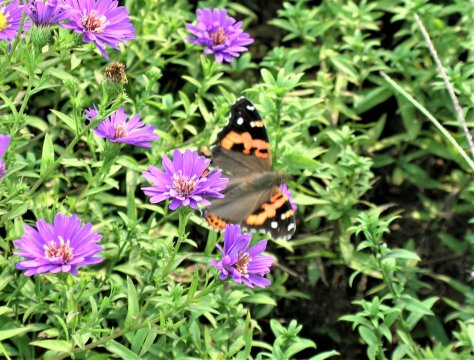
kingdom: Animalia
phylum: Arthropoda
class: Insecta
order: Lepidoptera
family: Nymphalidae
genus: Vanessa
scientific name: Vanessa indica
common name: Asian Admiral
